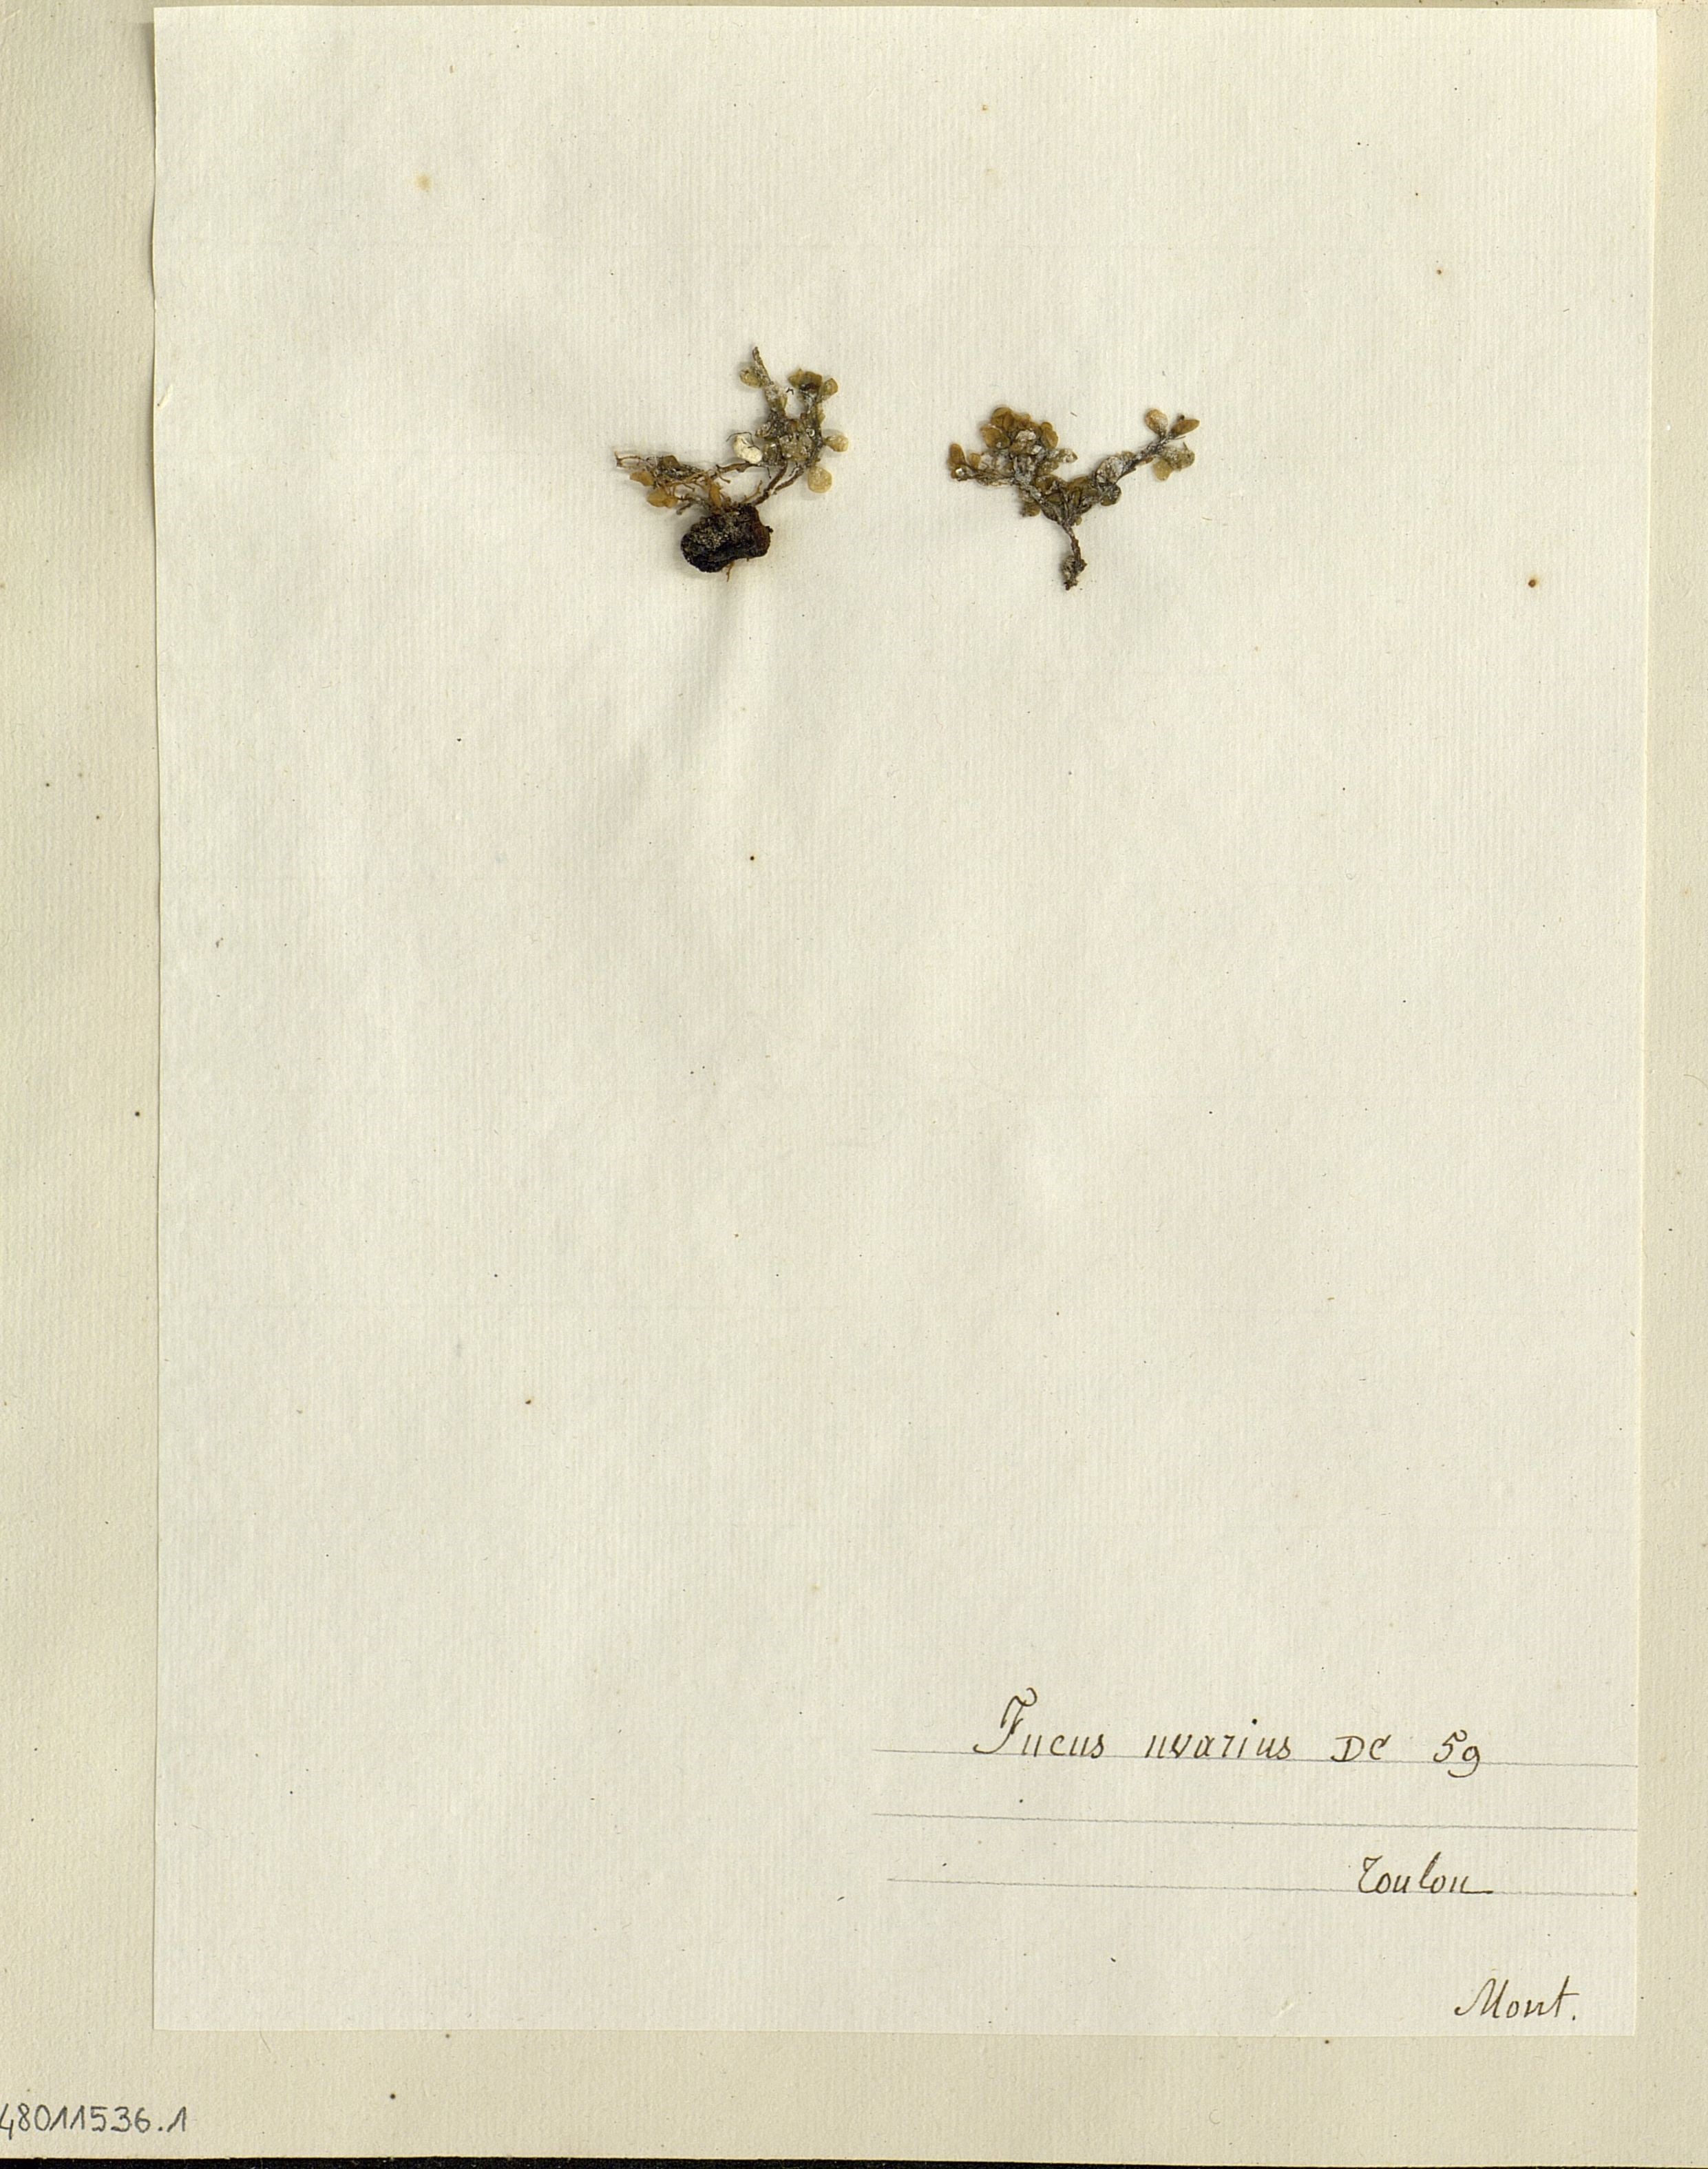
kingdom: Chromista
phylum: Ochrophyta
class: Phaeophyceae
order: Fucales
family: Fucaceae
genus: Fucus
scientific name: Fucus
